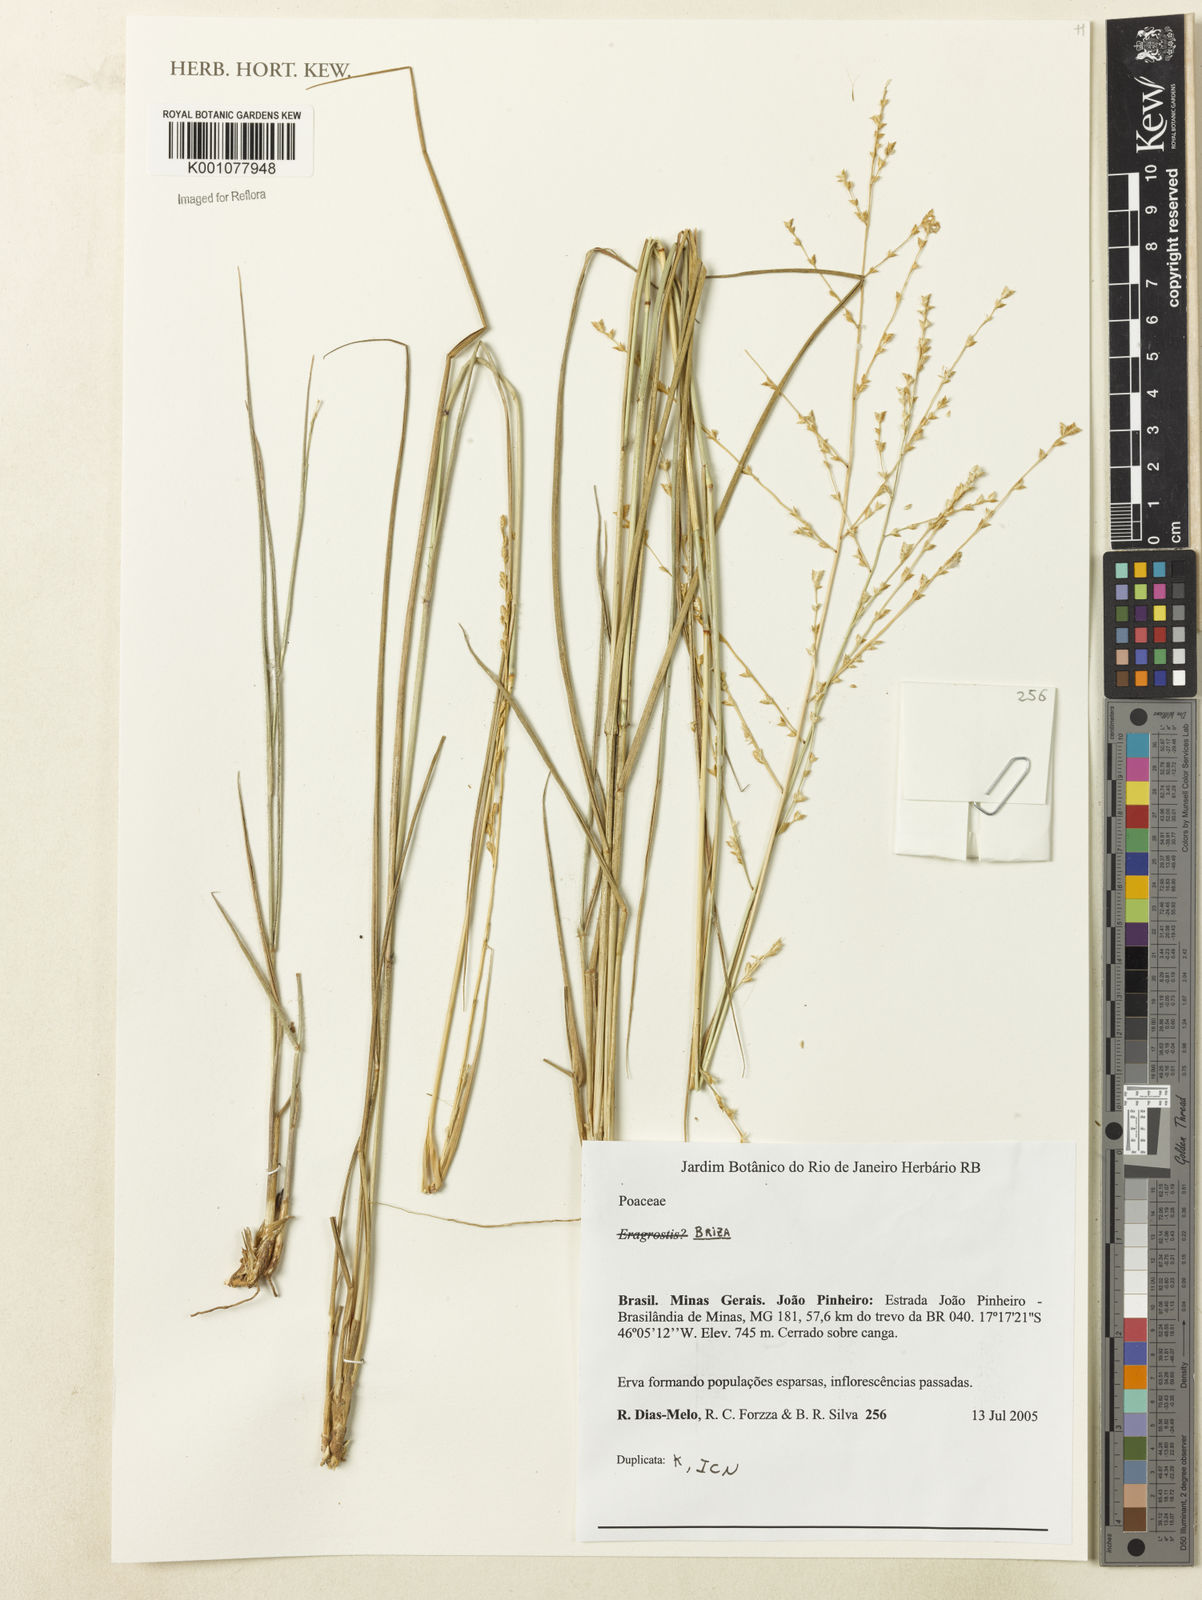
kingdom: Plantae
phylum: Tracheophyta
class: Liliopsida
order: Poales
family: Poaceae
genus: Briza
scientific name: Briza
